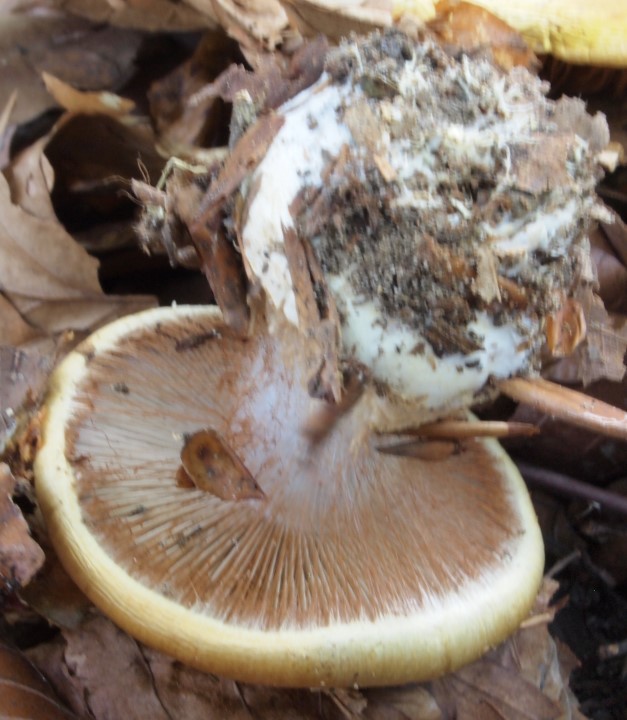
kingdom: Fungi
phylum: Basidiomycota
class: Agaricomycetes
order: Agaricales
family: Cortinariaceae
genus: Cortinarius
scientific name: Cortinarius anserinus
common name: bøge-slørhat
